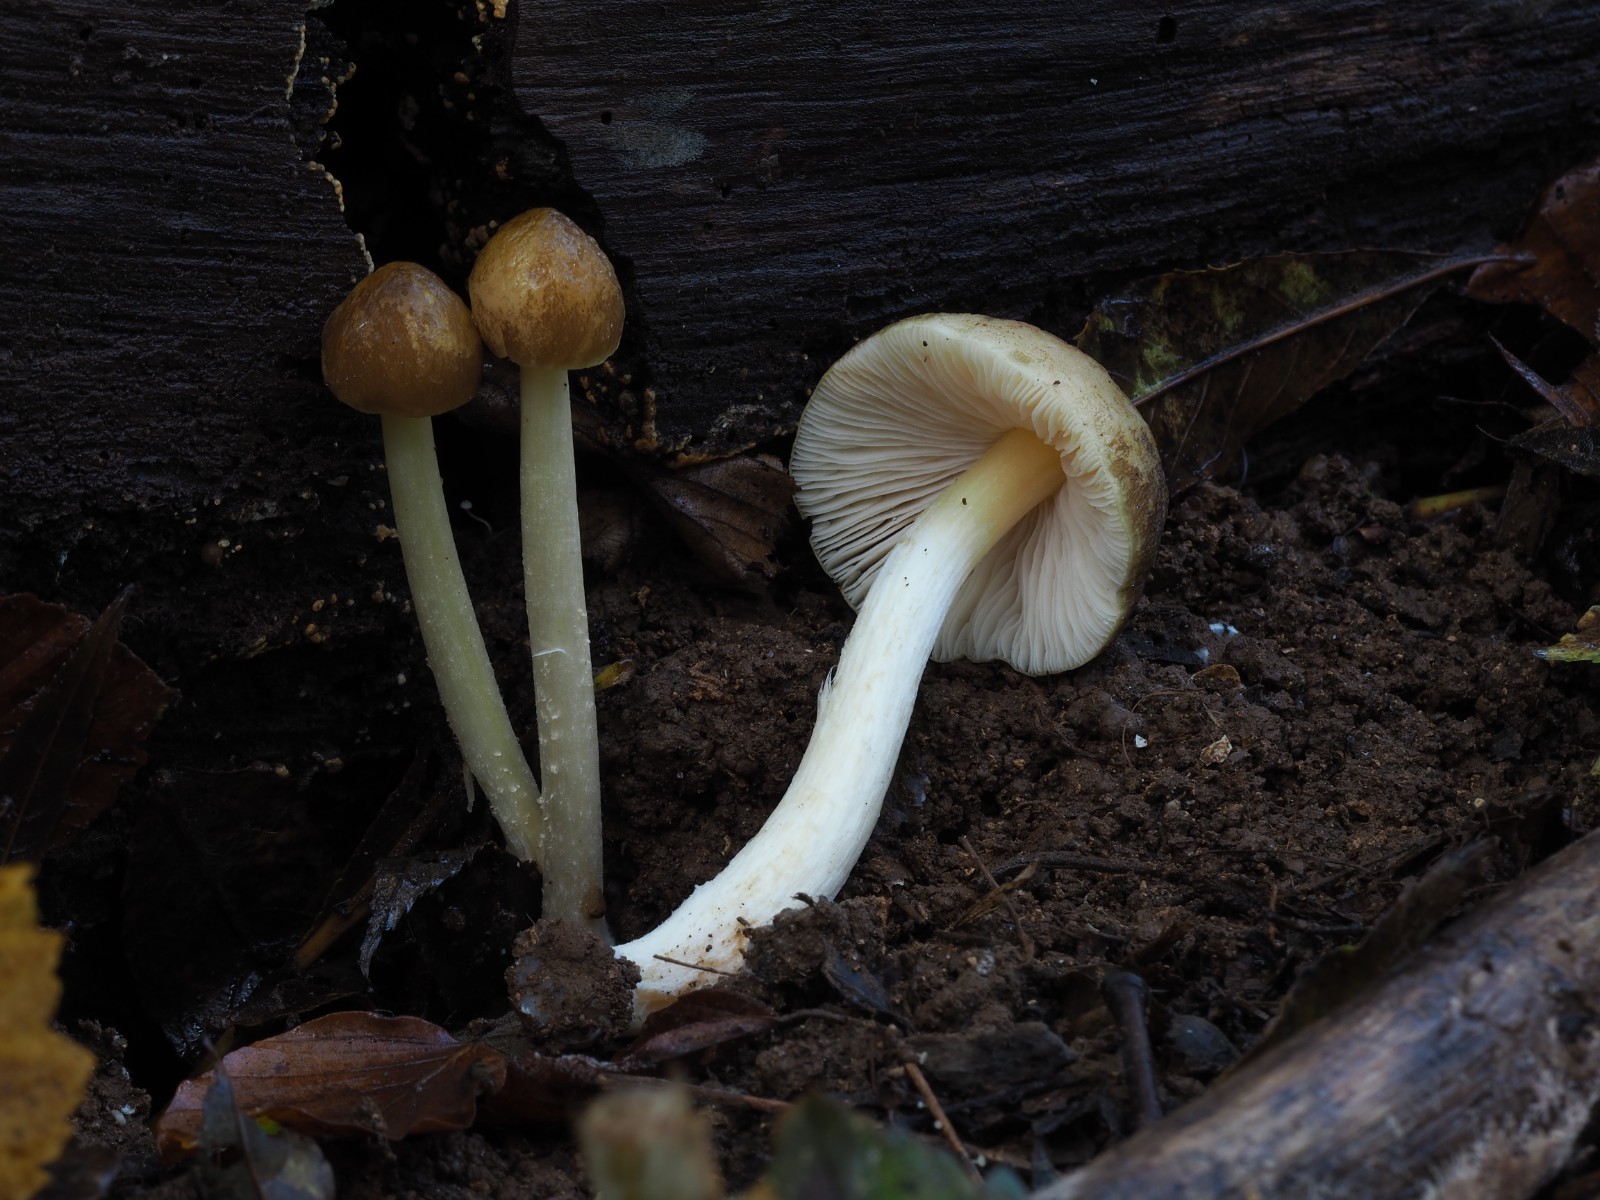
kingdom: Fungi
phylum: Basidiomycota
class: Agaricomycetes
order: Agaricales
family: Pluteaceae
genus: Pluteus
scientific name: Pluteus romellii
